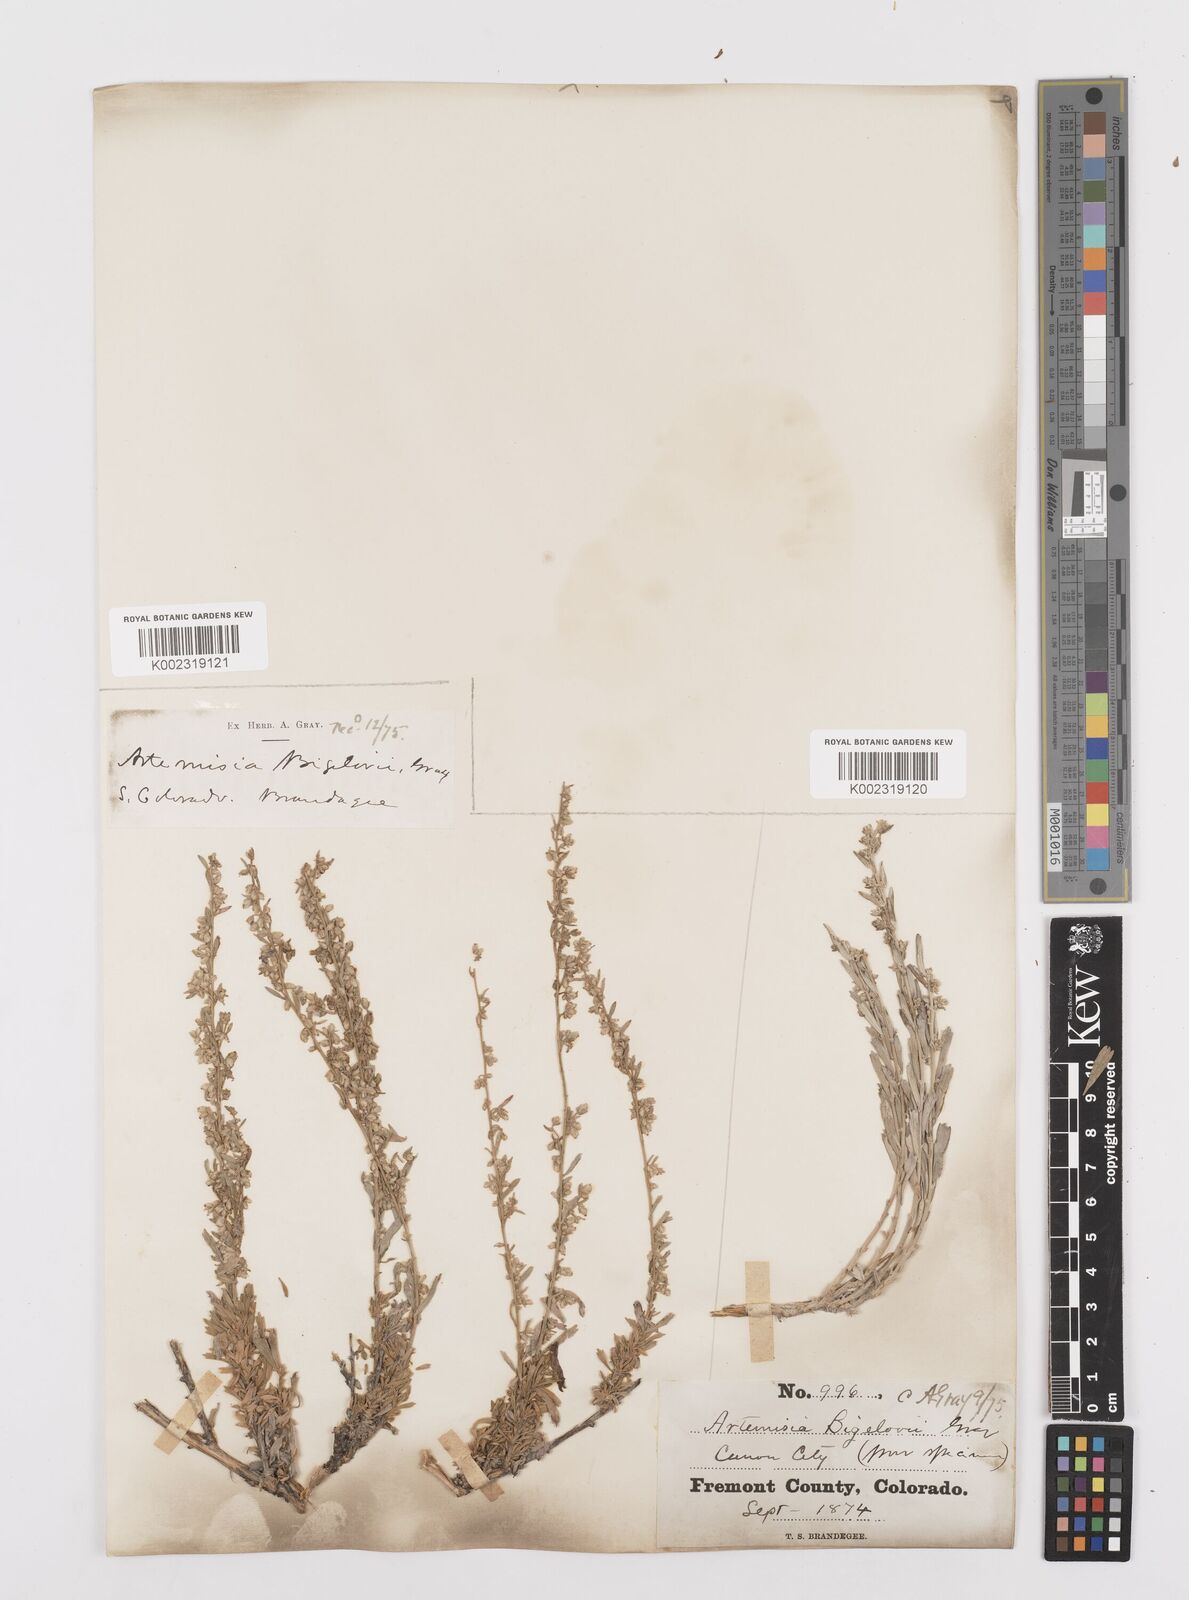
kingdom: Plantae
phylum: Tracheophyta
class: Magnoliopsida
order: Asterales
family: Asteraceae
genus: Artemisia
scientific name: Artemisia cana
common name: Silver sagebrush
